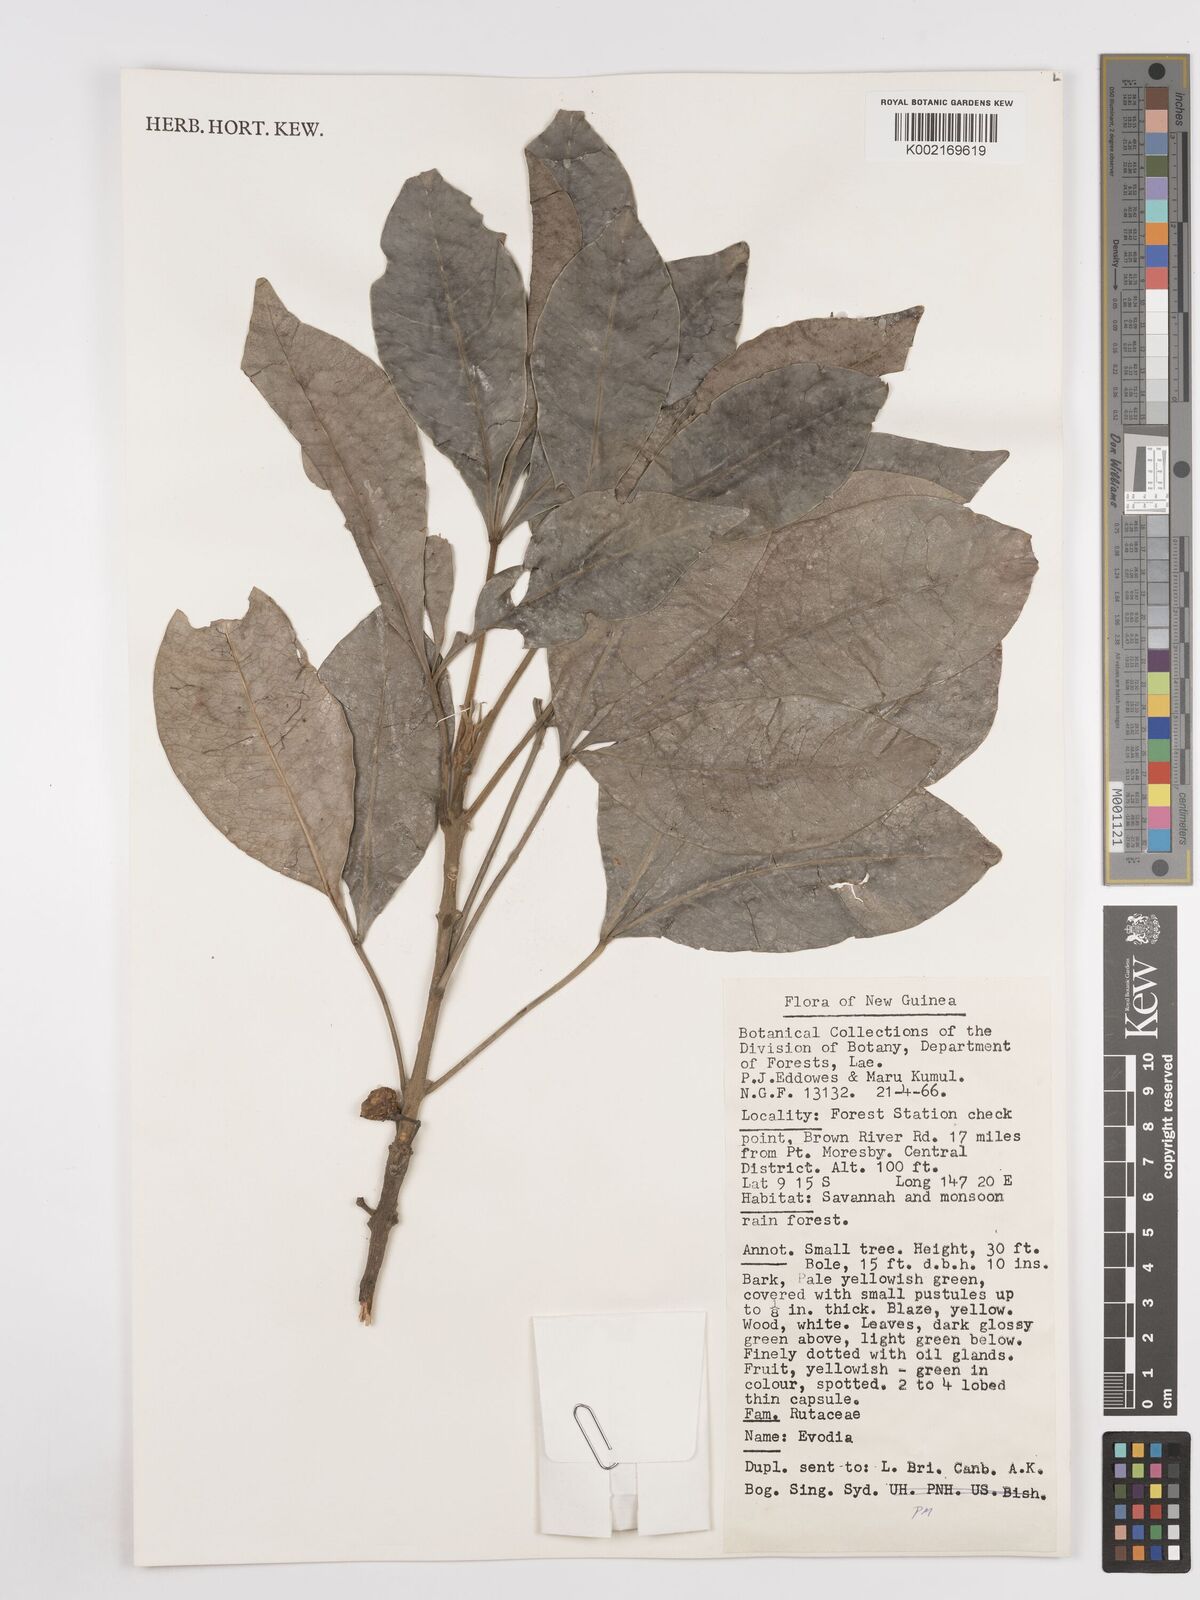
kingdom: Plantae
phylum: Tracheophyta
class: Magnoliopsida
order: Sapindales
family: Rutaceae
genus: Euodia
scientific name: Euodia
